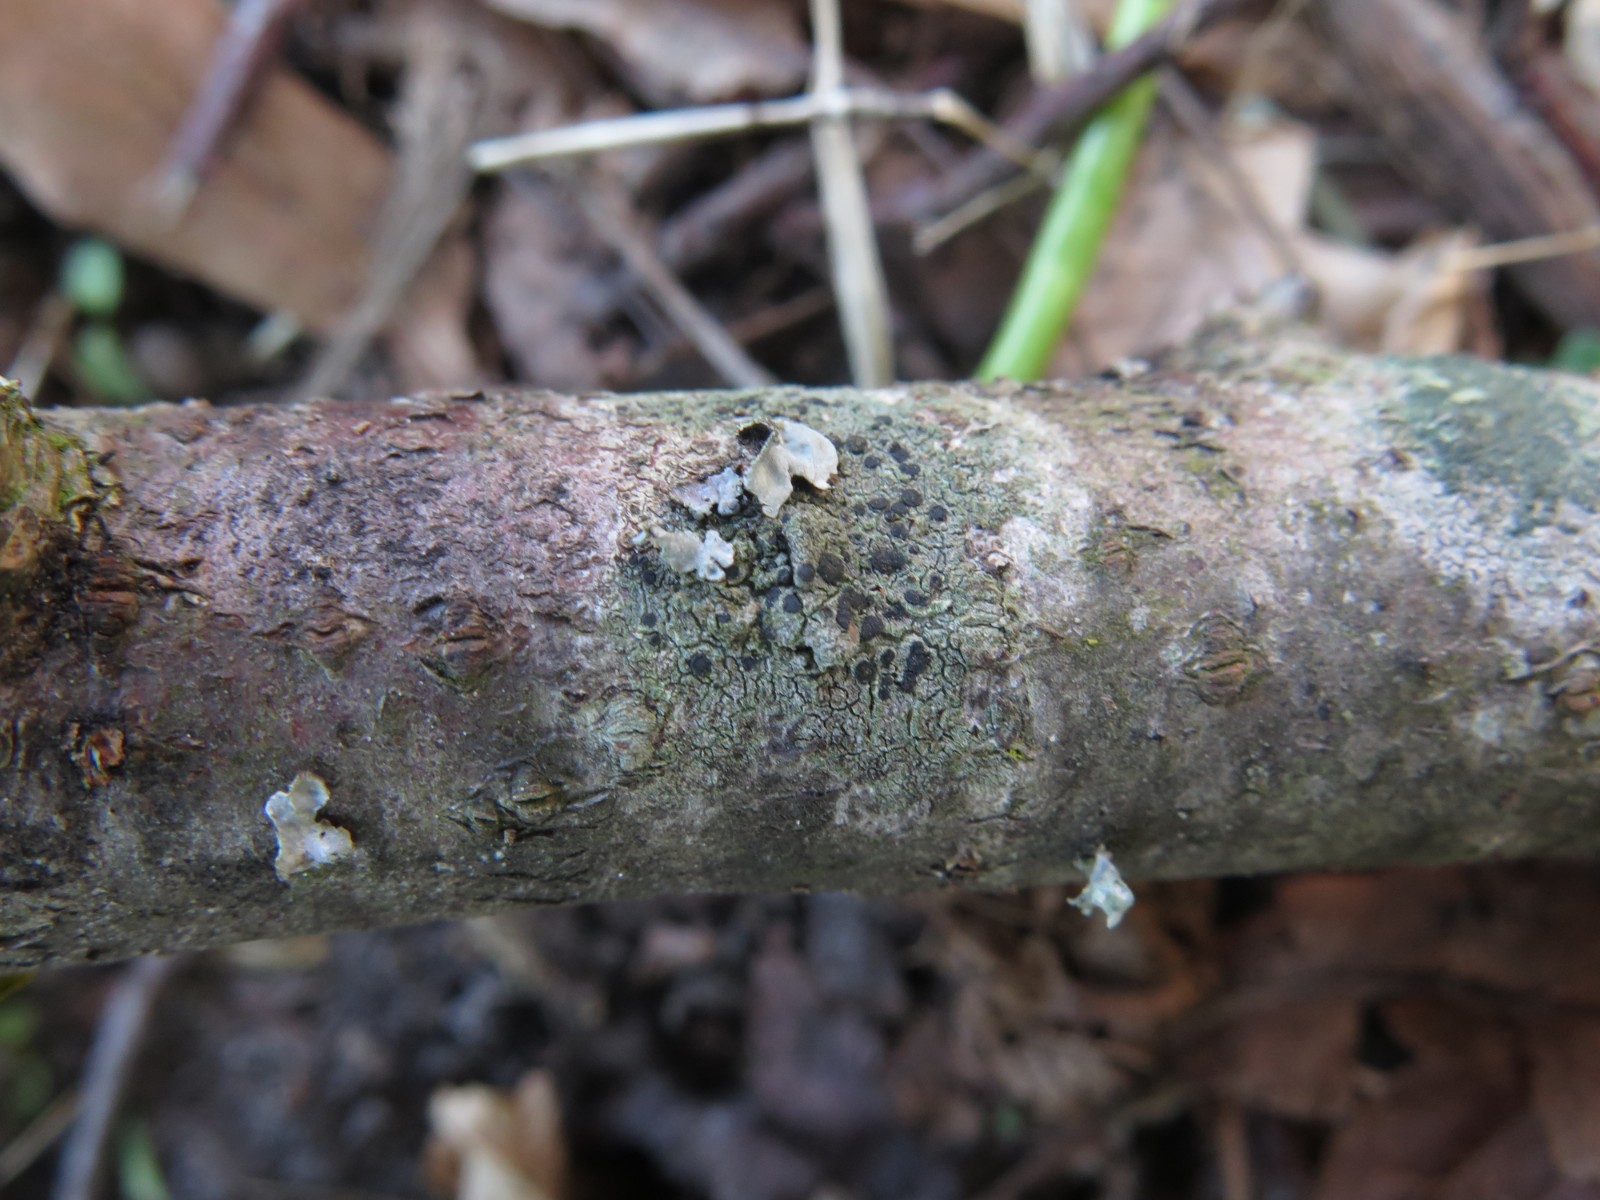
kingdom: Fungi
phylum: Ascomycota
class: Lecanoromycetes
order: Lecanorales
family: Lecanoraceae
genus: Lecidella
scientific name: Lecidella elaeochroma
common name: grågrøn skivelav
